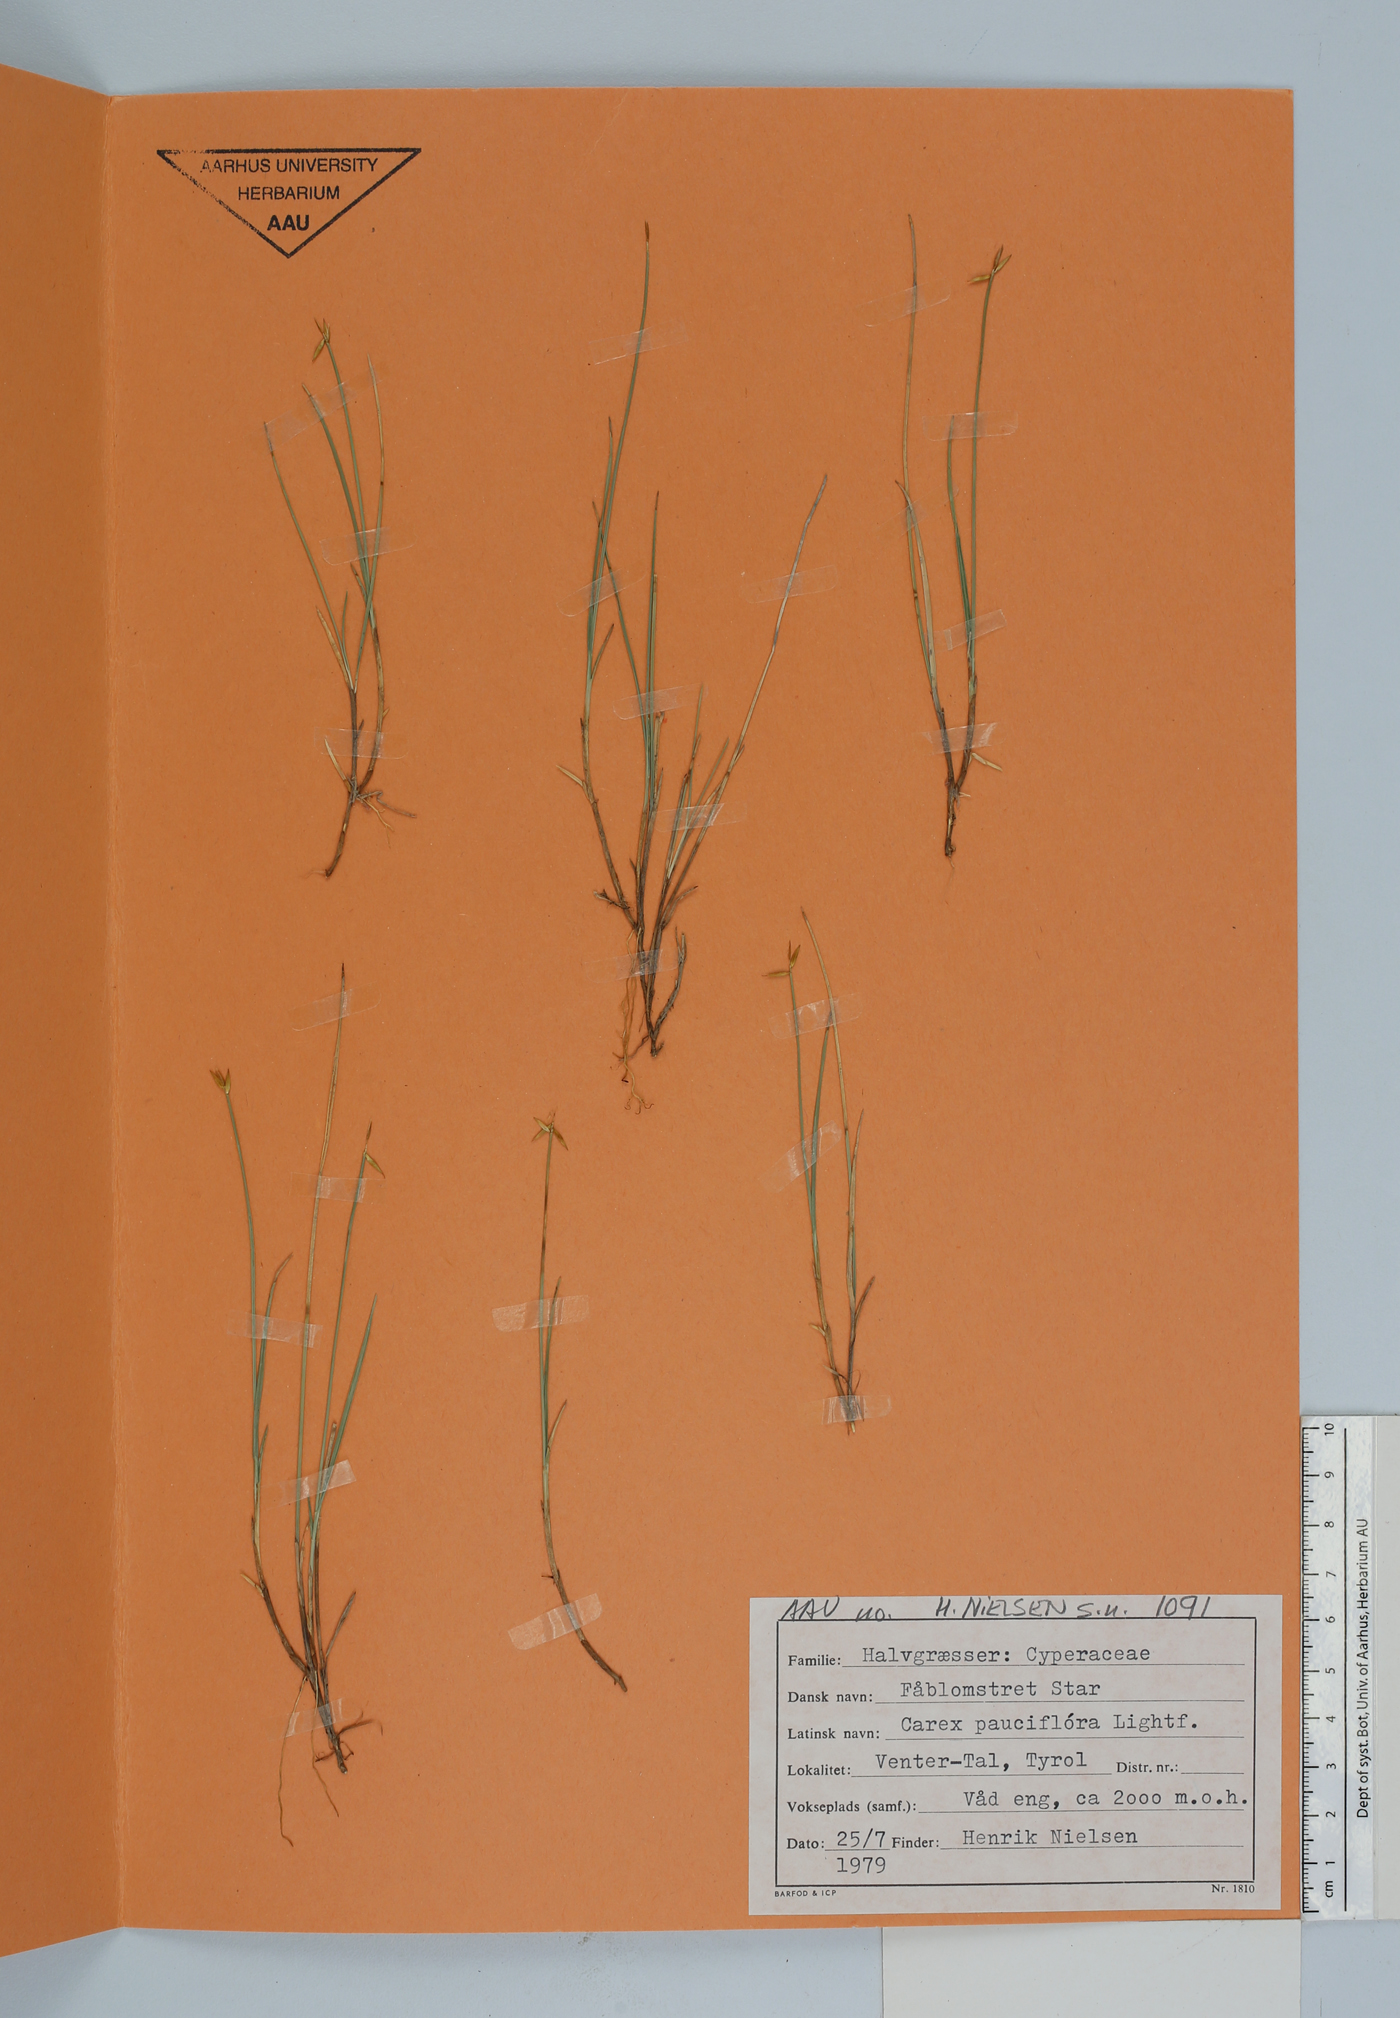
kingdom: Plantae
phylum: Tracheophyta
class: Liliopsida
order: Poales
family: Cyperaceae
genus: Carex
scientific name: Carex pauciflora
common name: Few-flowered sedge
